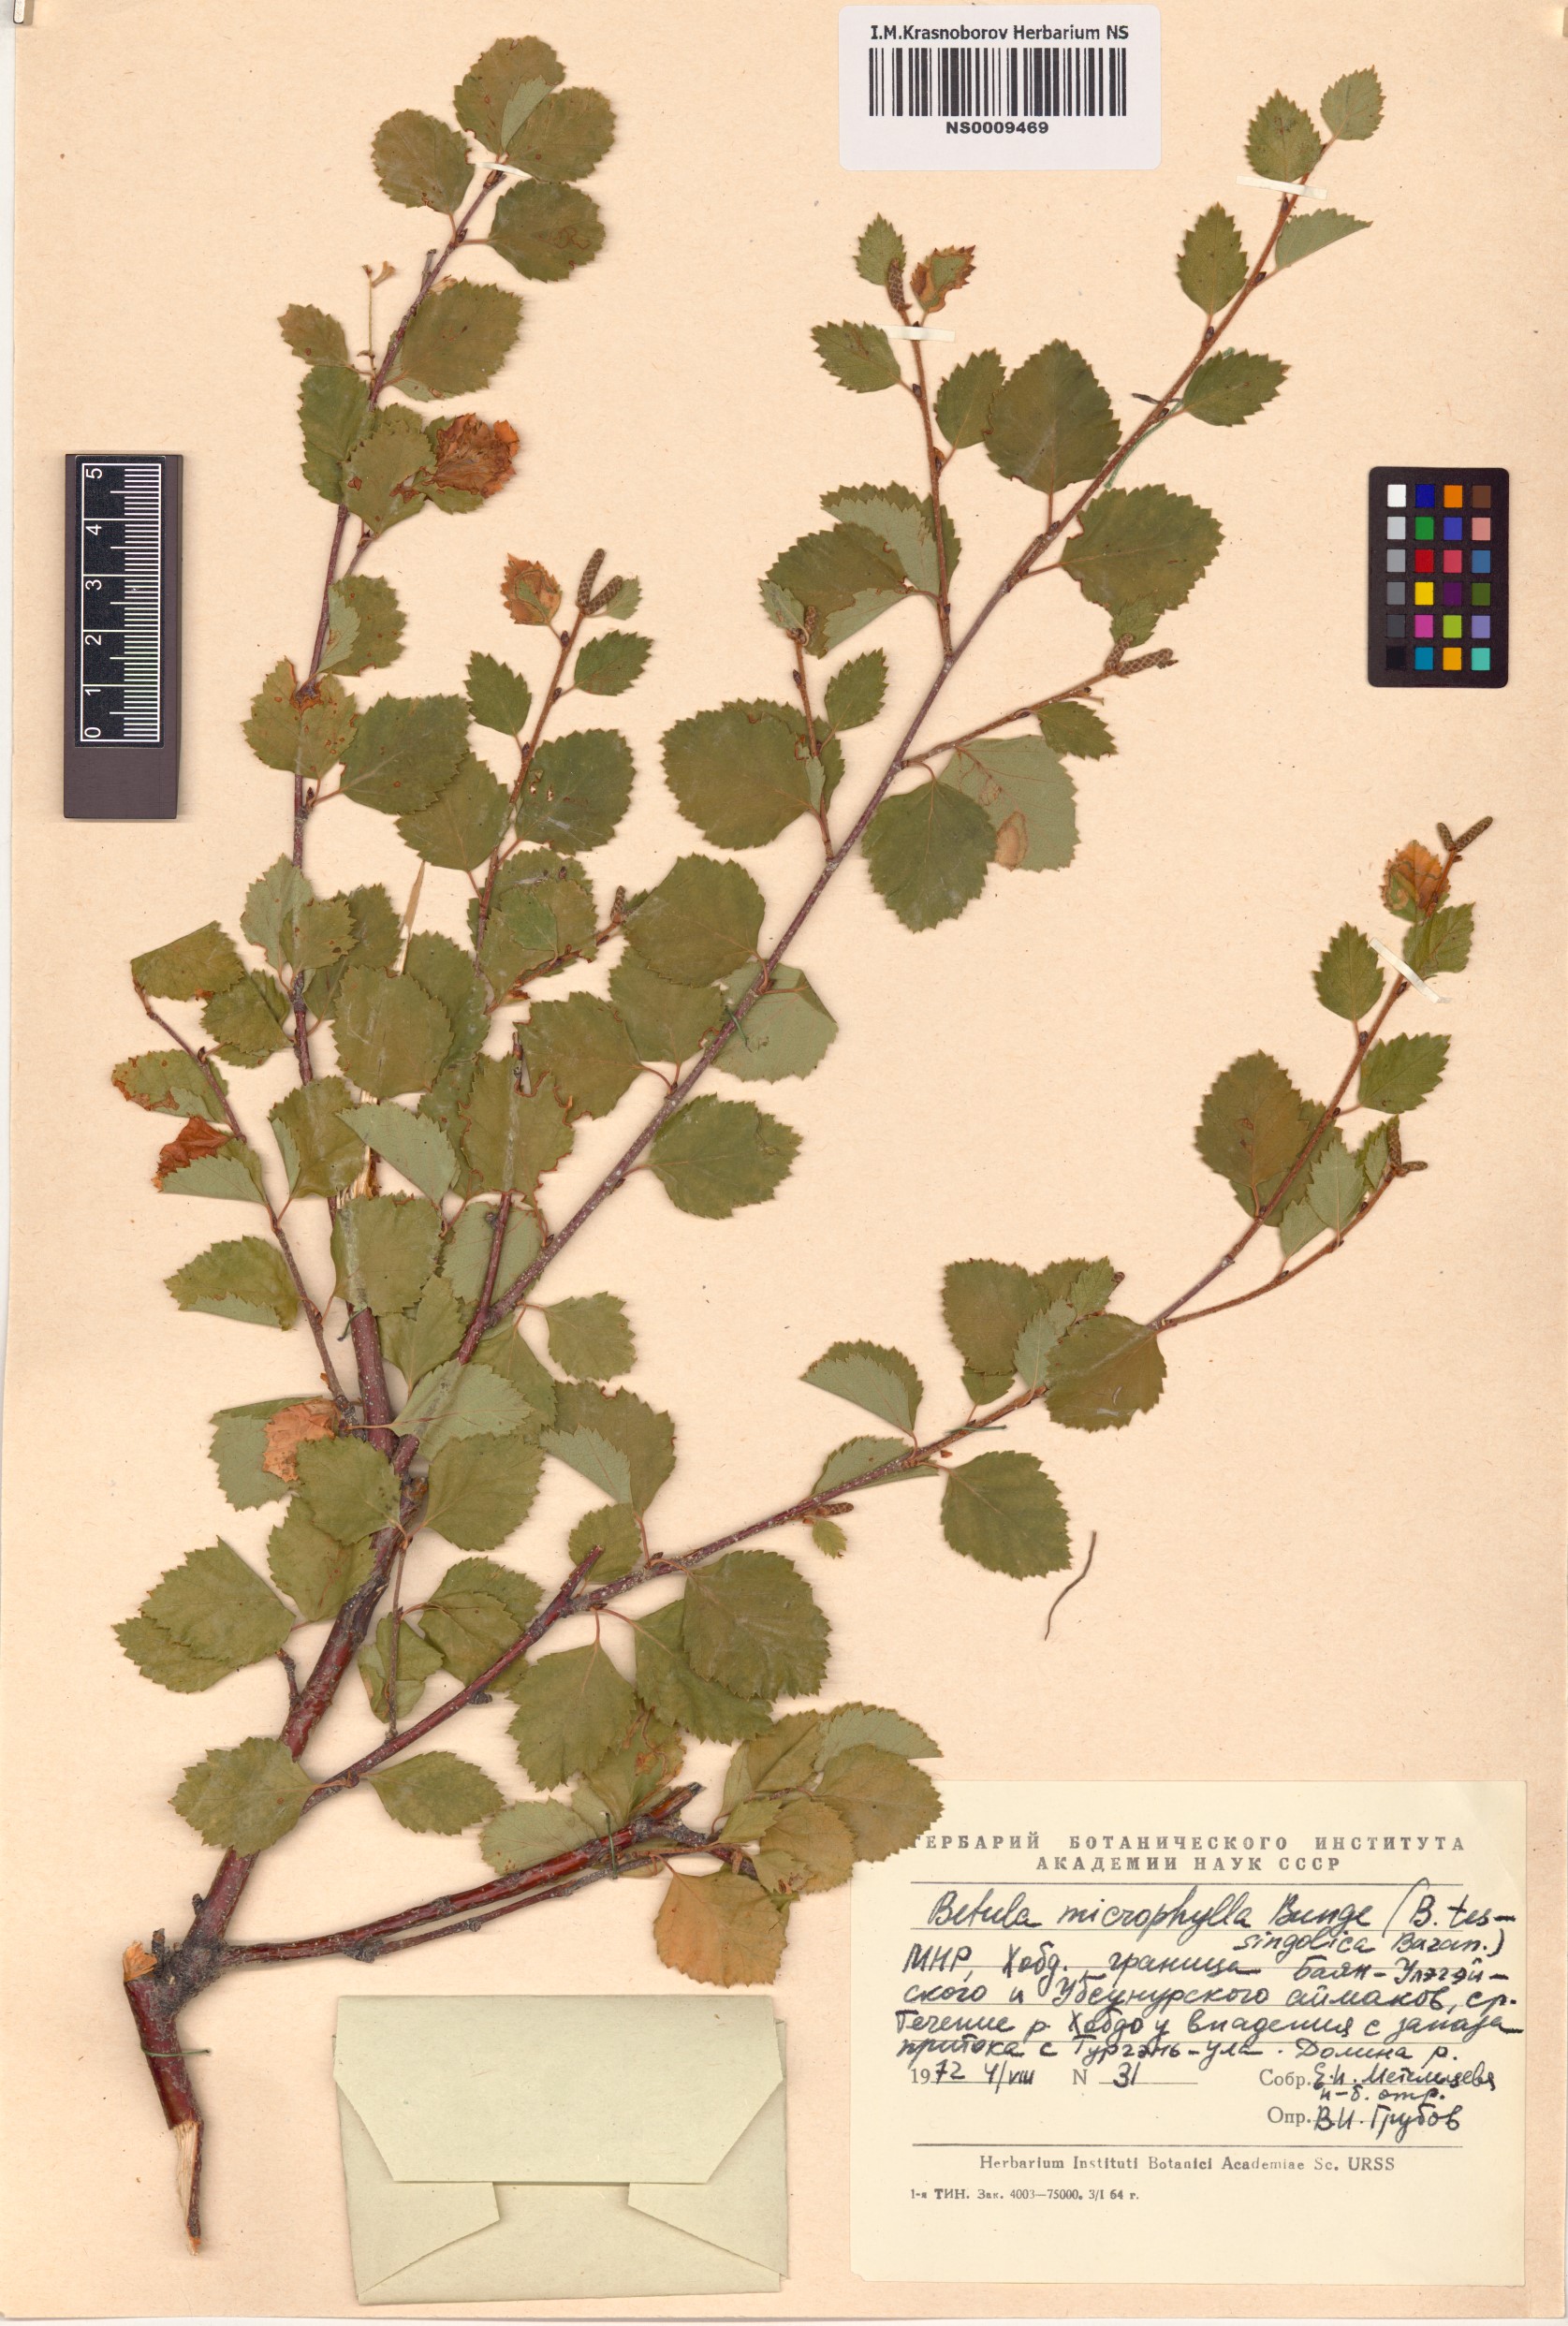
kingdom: Plantae
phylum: Tracheophyta
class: Magnoliopsida
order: Fagales
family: Betulaceae
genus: Betula
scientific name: Betula microphylla
